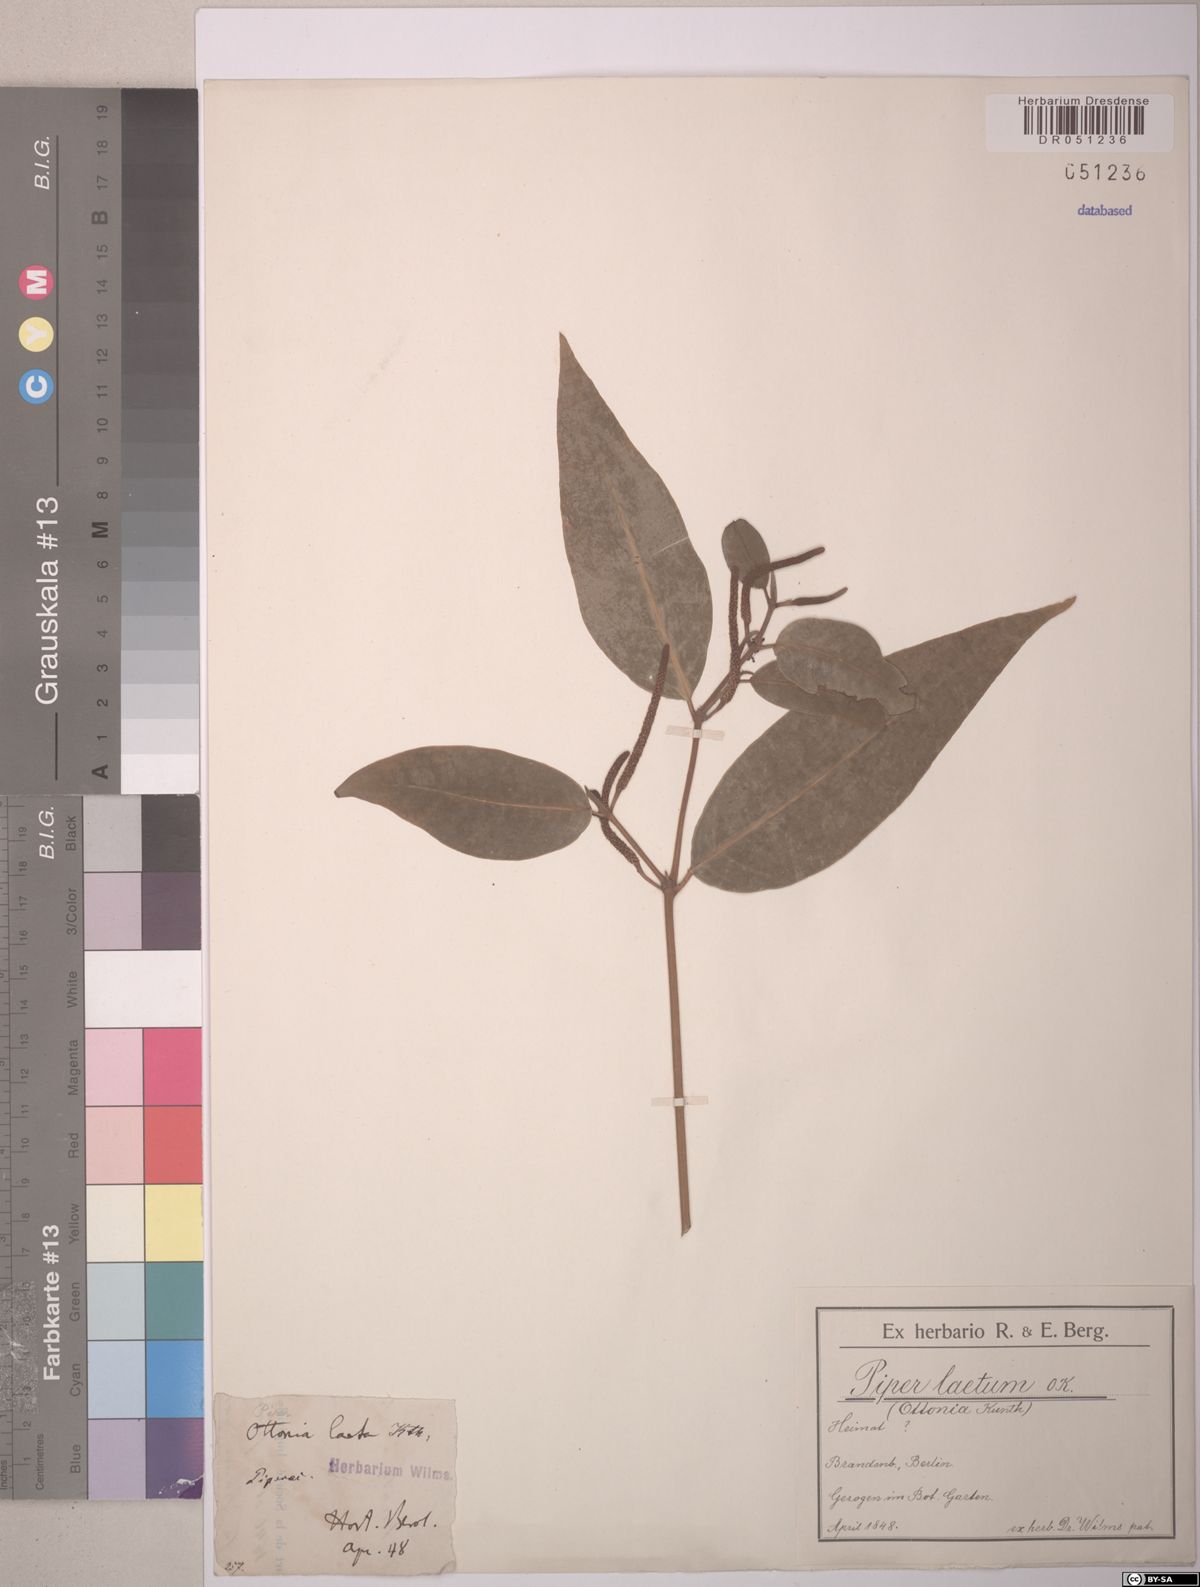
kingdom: Plantae
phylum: Tracheophyta
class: Magnoliopsida
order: Piperales
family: Piperaceae
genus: Piper
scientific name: Piper laetum
